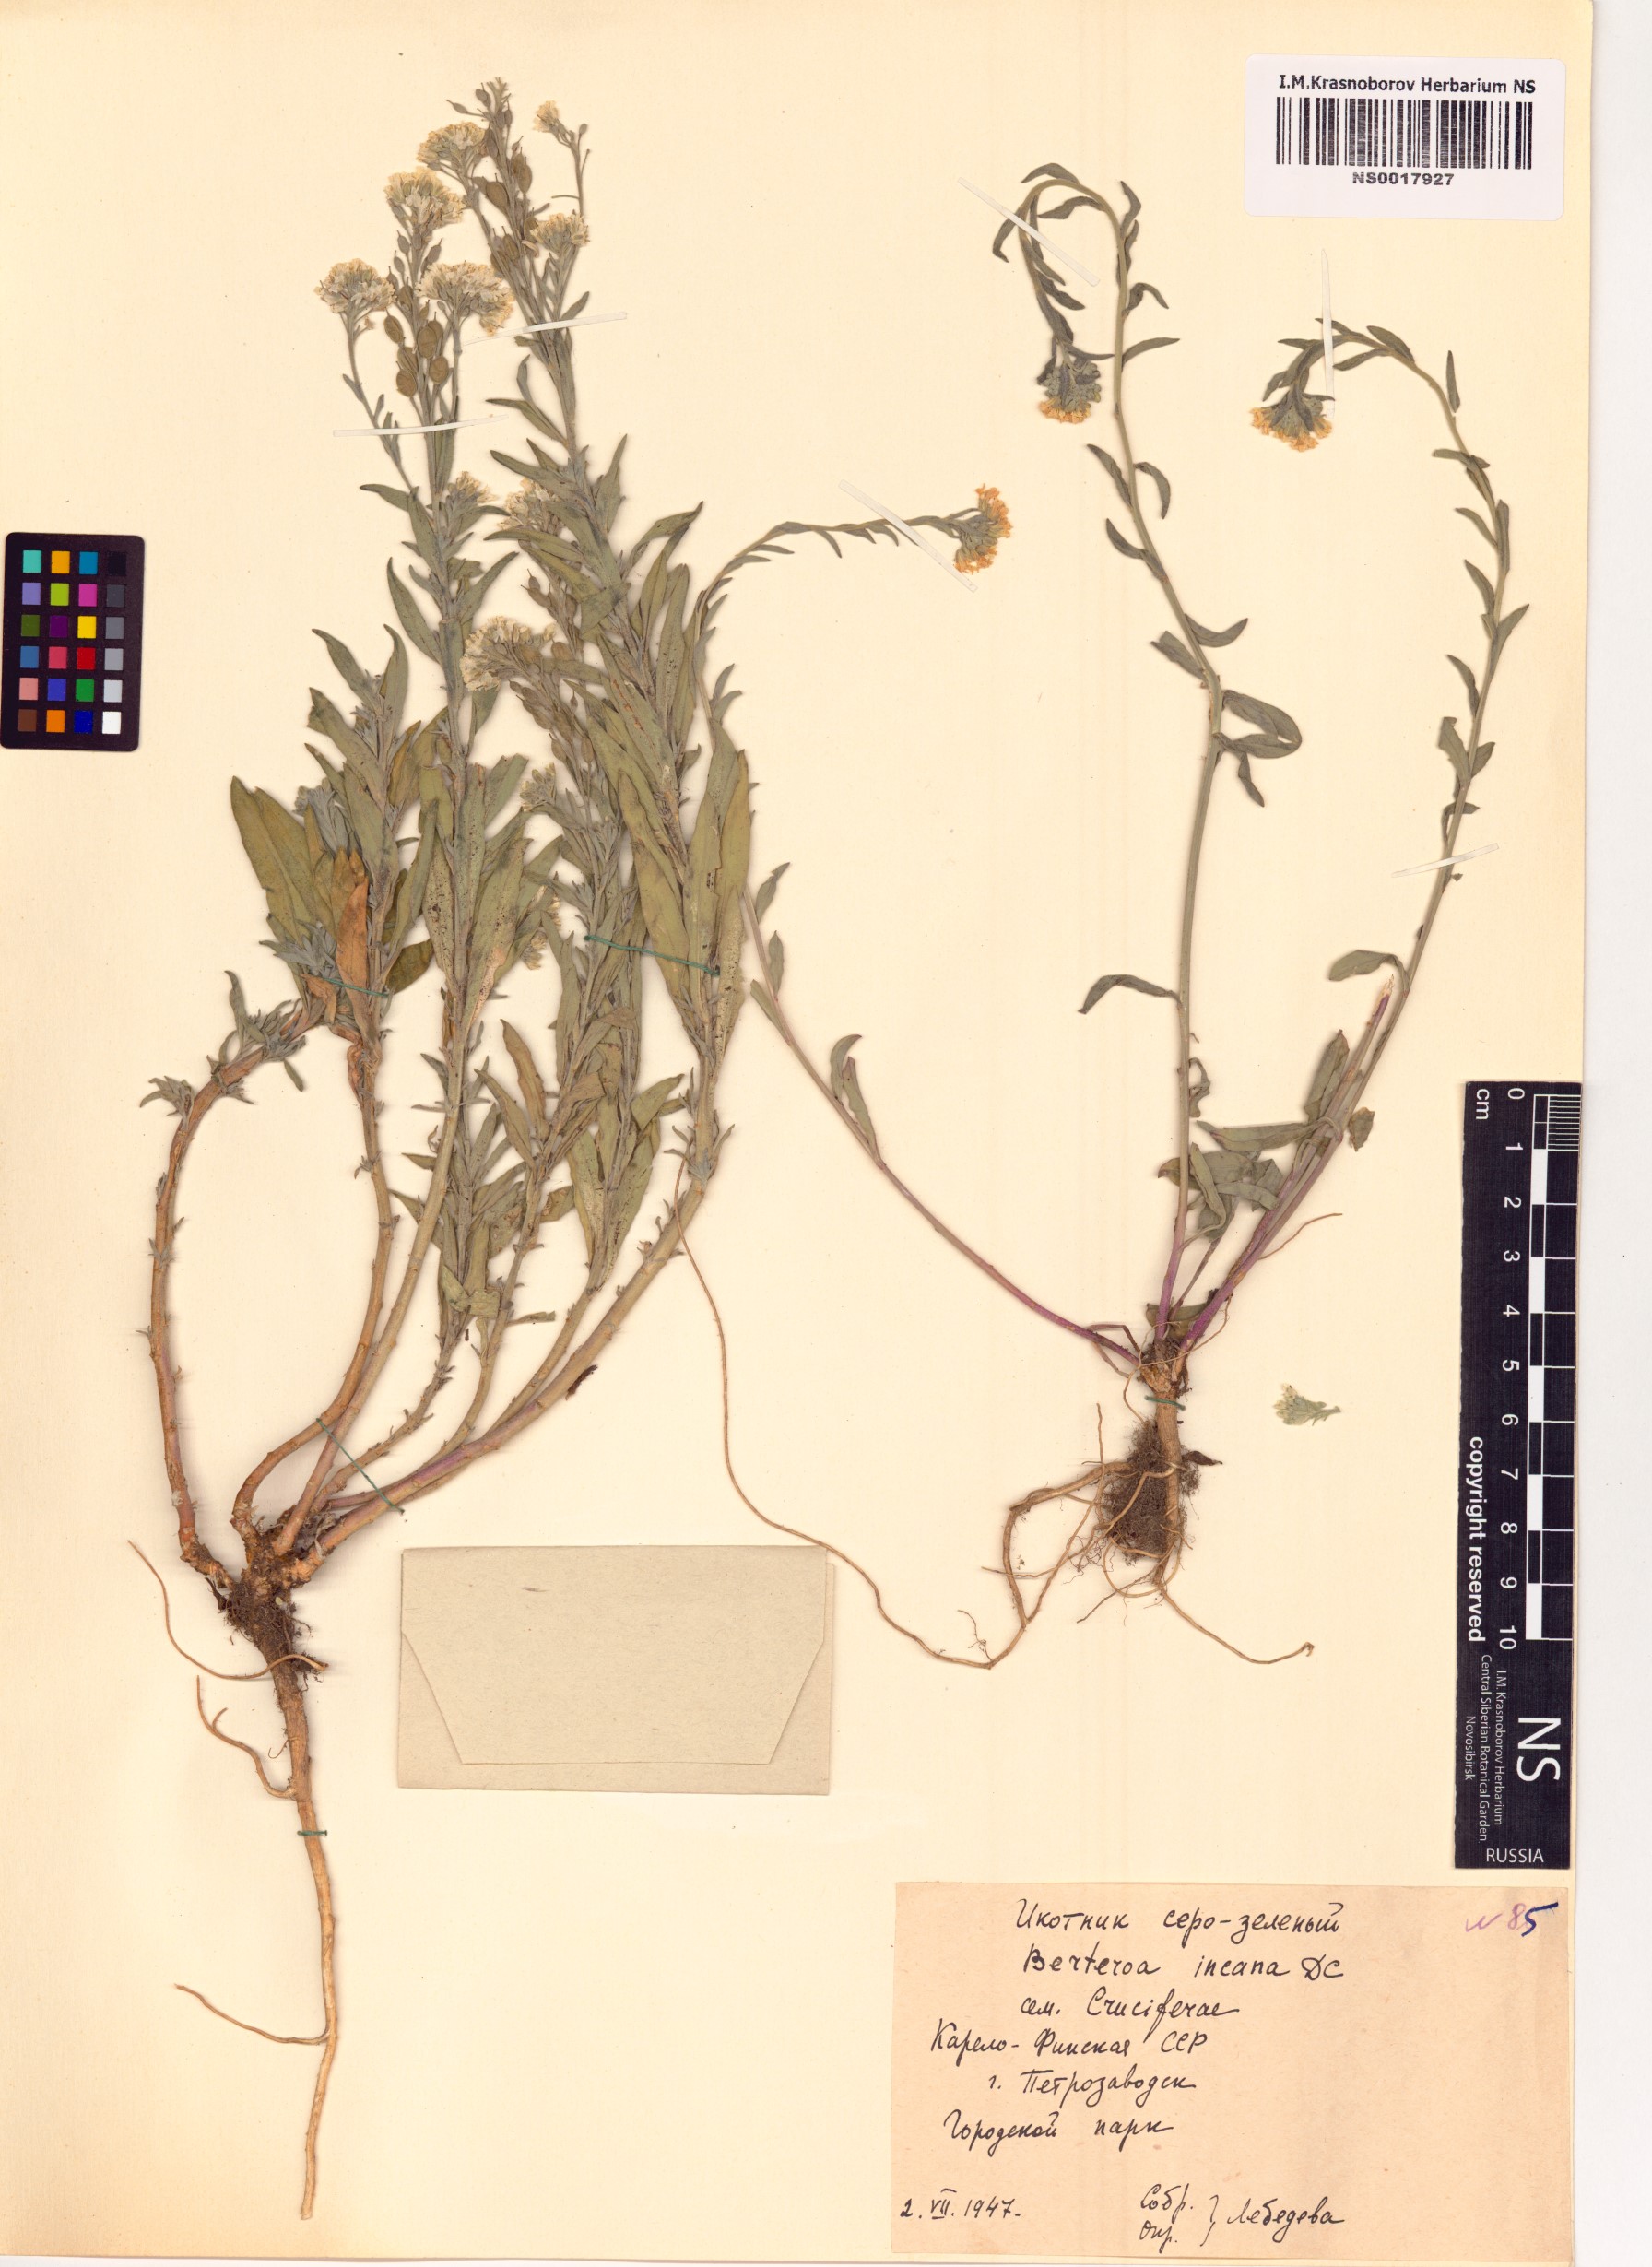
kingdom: Plantae
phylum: Tracheophyta
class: Magnoliopsida
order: Brassicales
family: Brassicaceae
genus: Berteroa
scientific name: Berteroa incana
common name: Hoary alison
